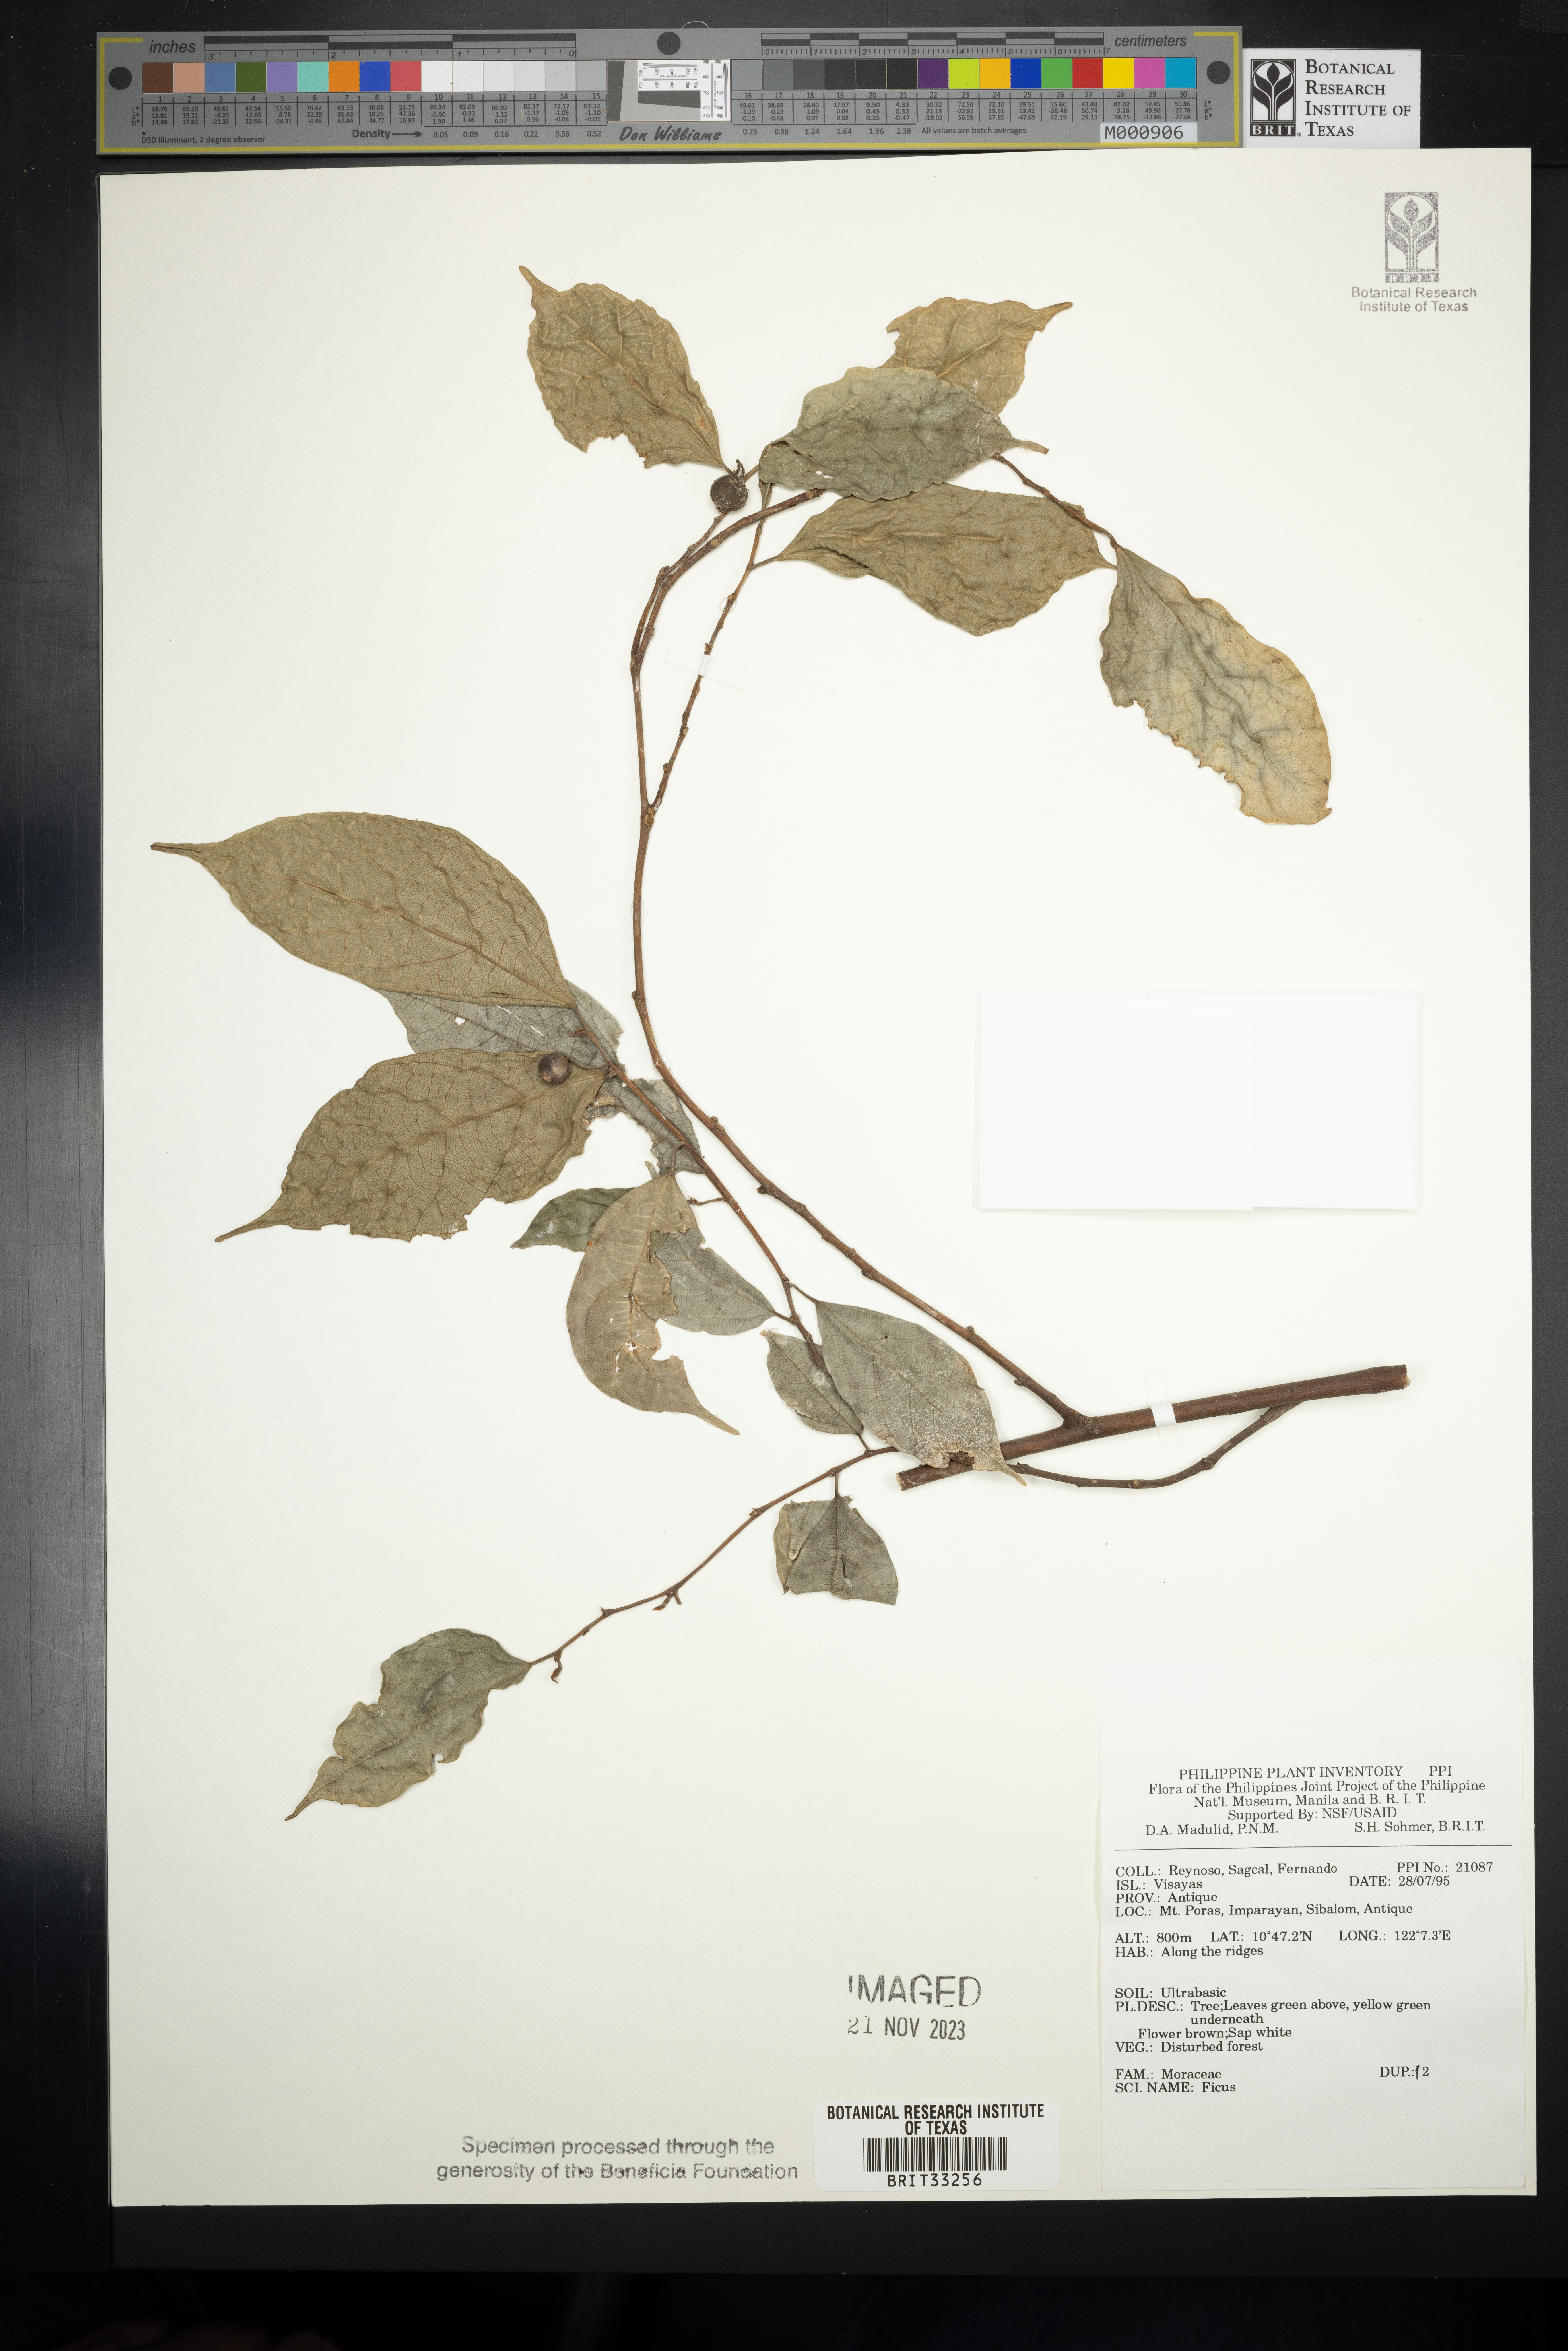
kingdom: Plantae
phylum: Tracheophyta
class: Magnoliopsida
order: Rosales
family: Moraceae
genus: Ficus
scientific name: Ficus
